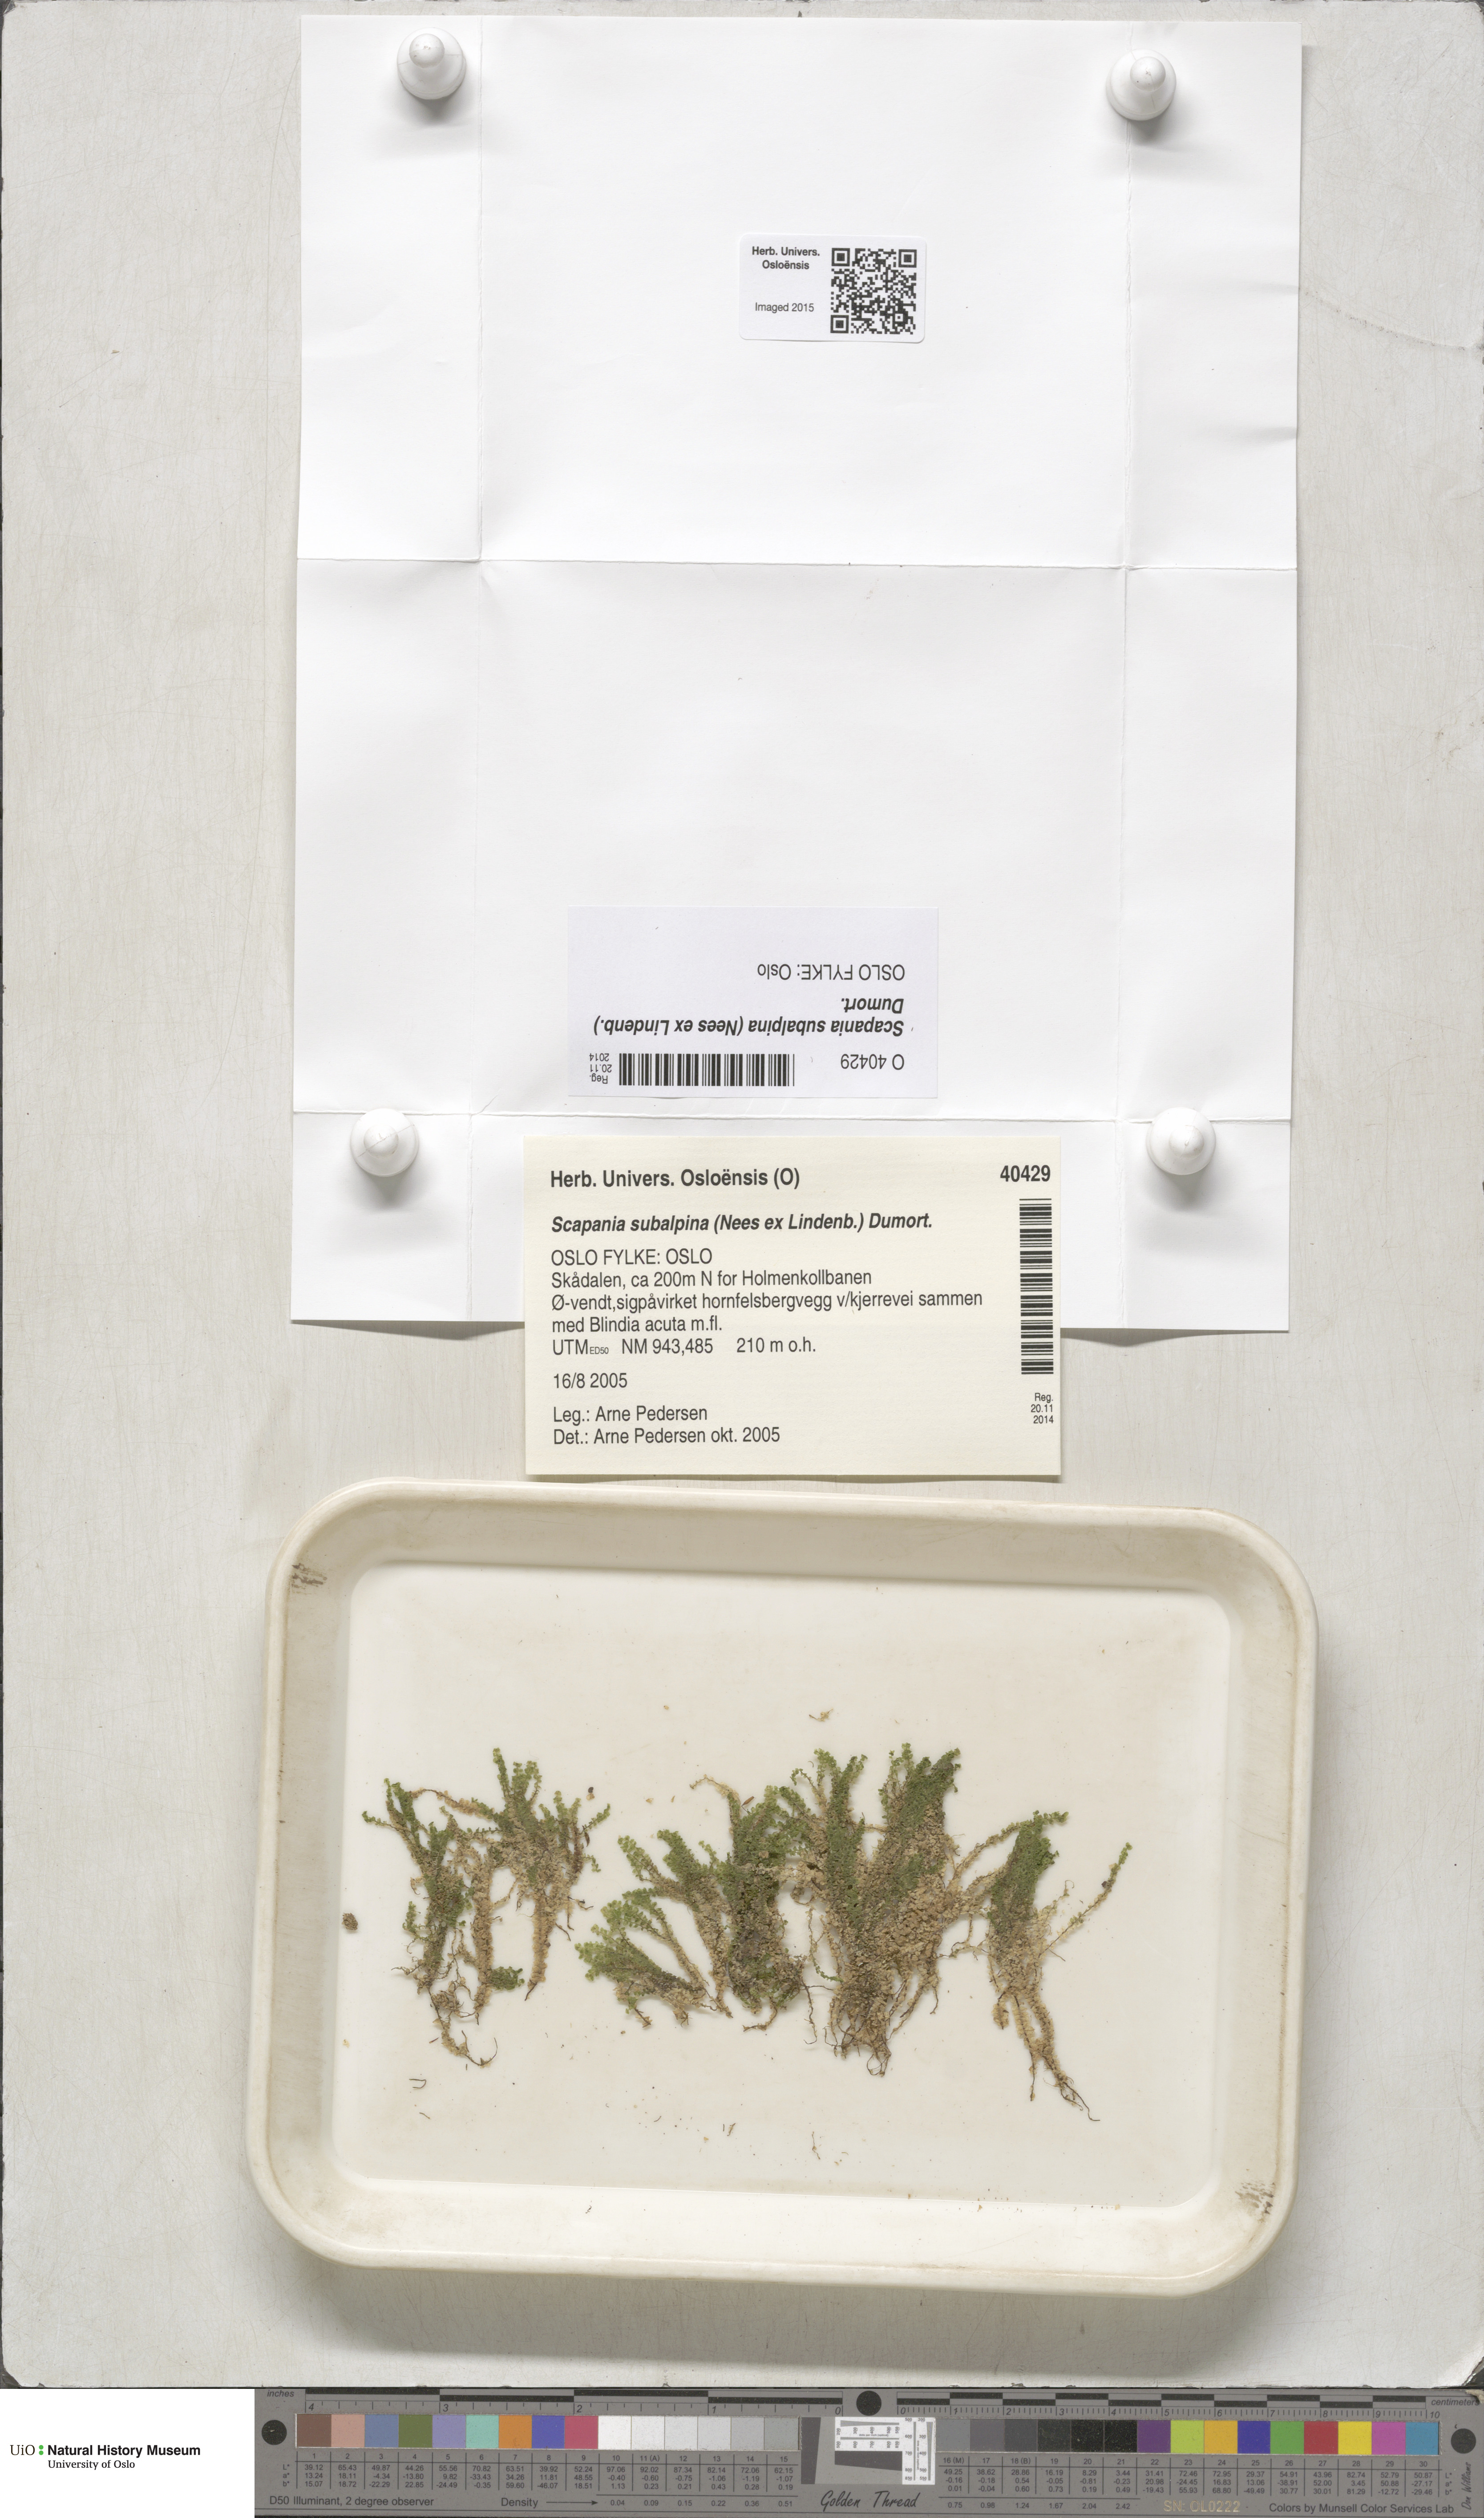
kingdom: Plantae
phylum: Marchantiophyta
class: Jungermanniopsida
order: Jungermanniales
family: Scapaniaceae
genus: Scapania
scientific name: Scapania subalpina
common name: Subalpine earwort
